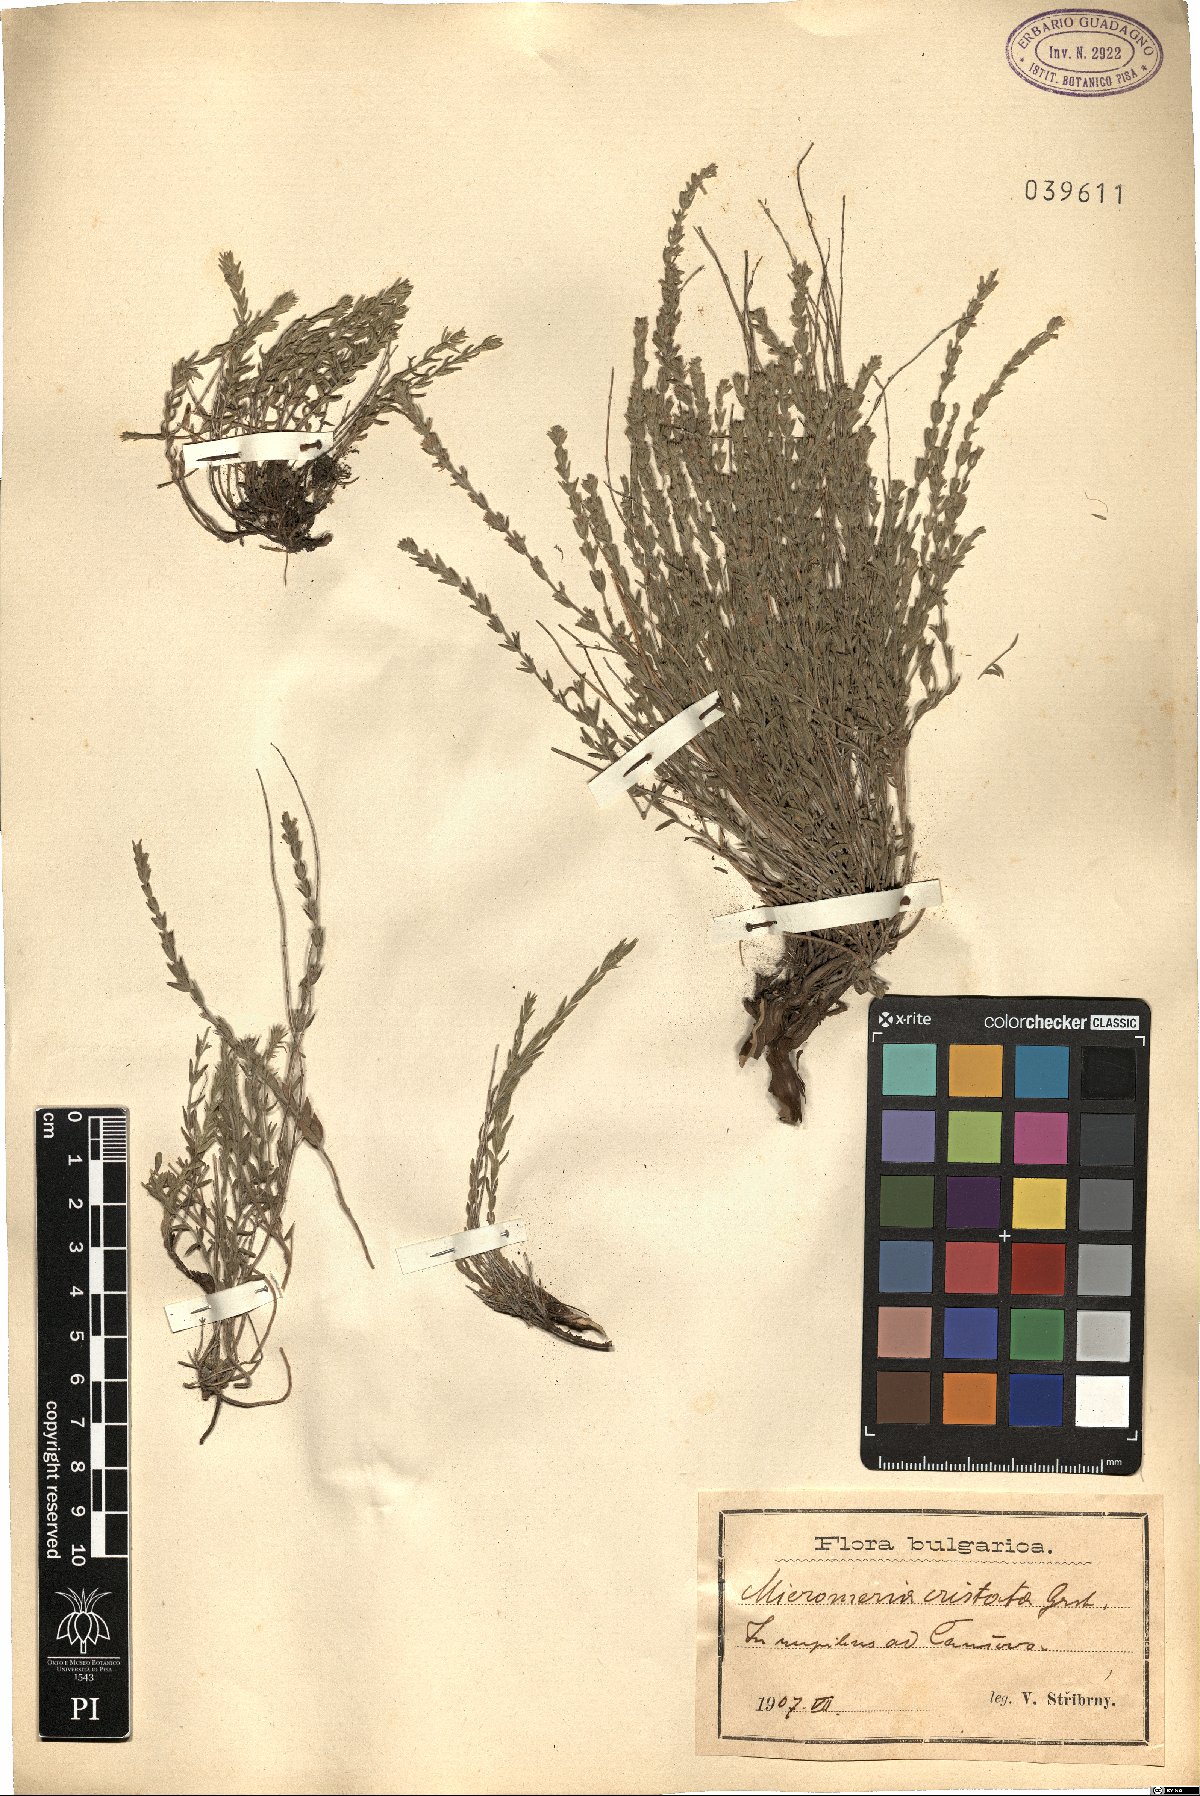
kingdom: Plantae
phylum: Tracheophyta
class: Magnoliopsida
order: Lamiales
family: Lamiaceae
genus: Micromeria
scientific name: Micromeria cristata
